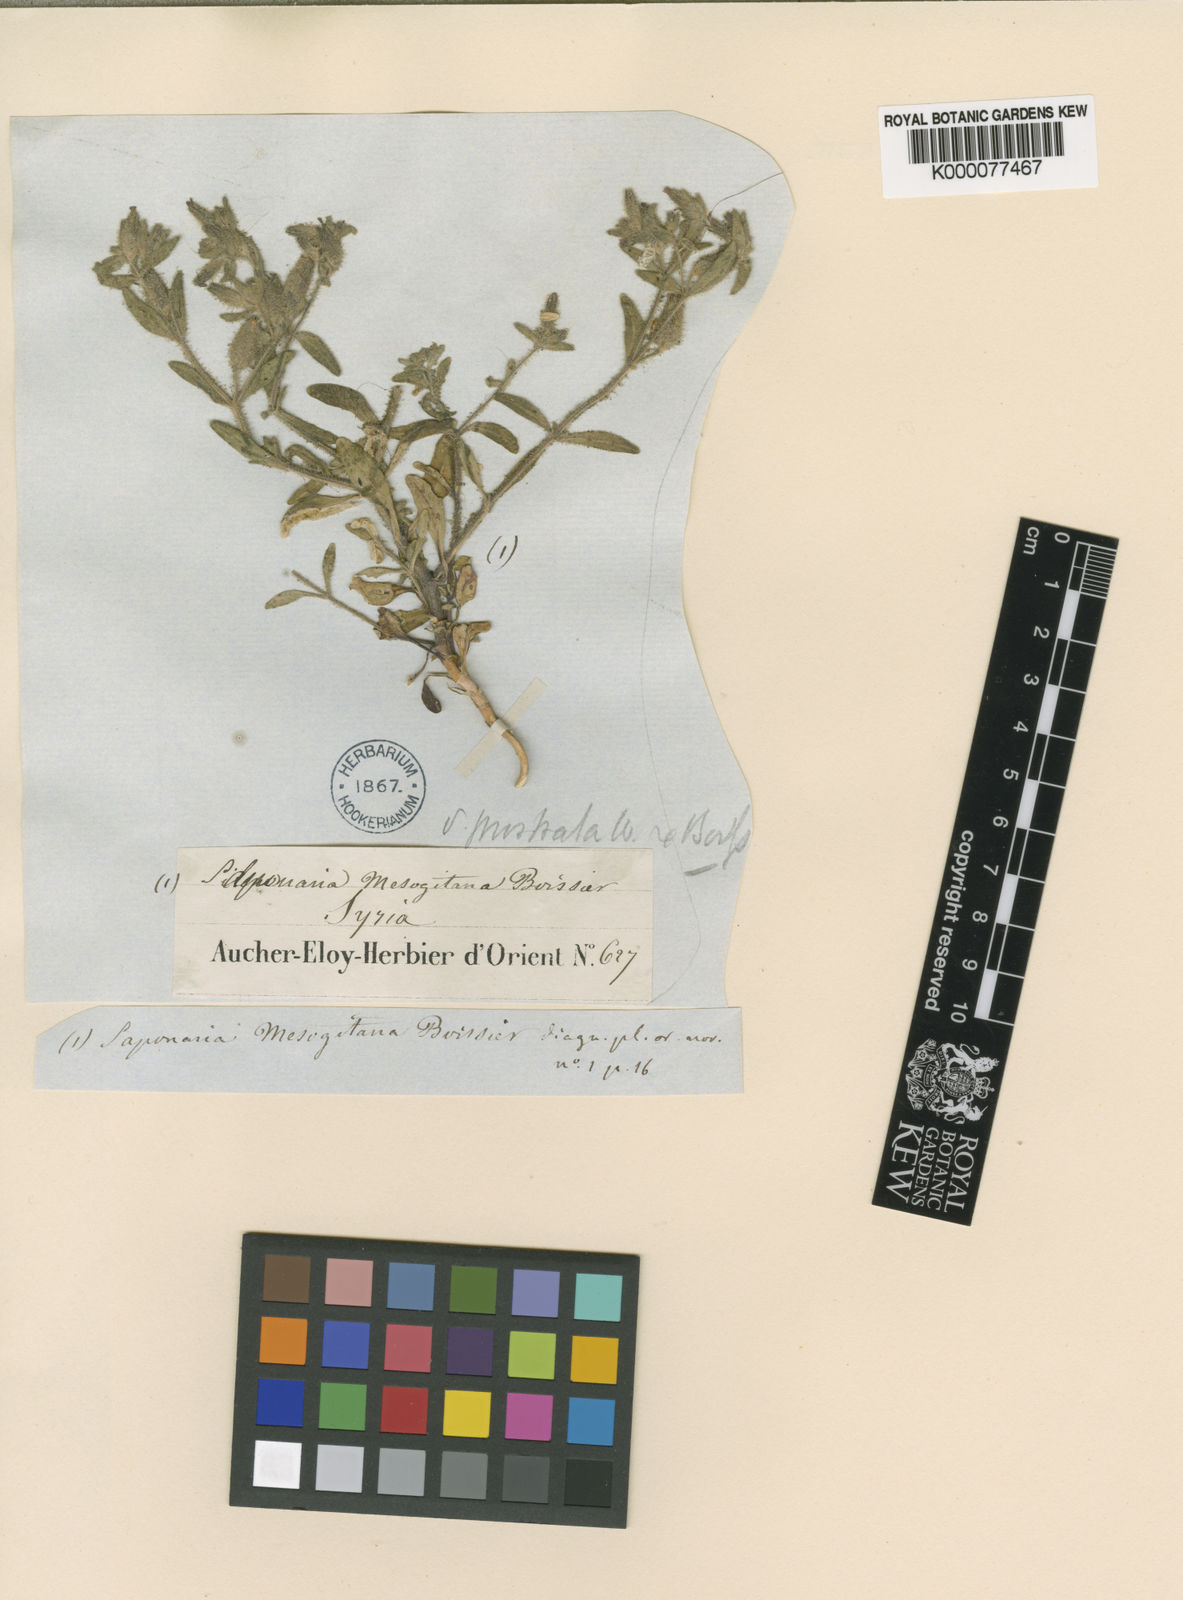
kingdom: Plantae
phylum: Tracheophyta
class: Magnoliopsida
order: Caryophyllales
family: Caryophyllaceae
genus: Saponaria
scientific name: Saponaria mesogitana
